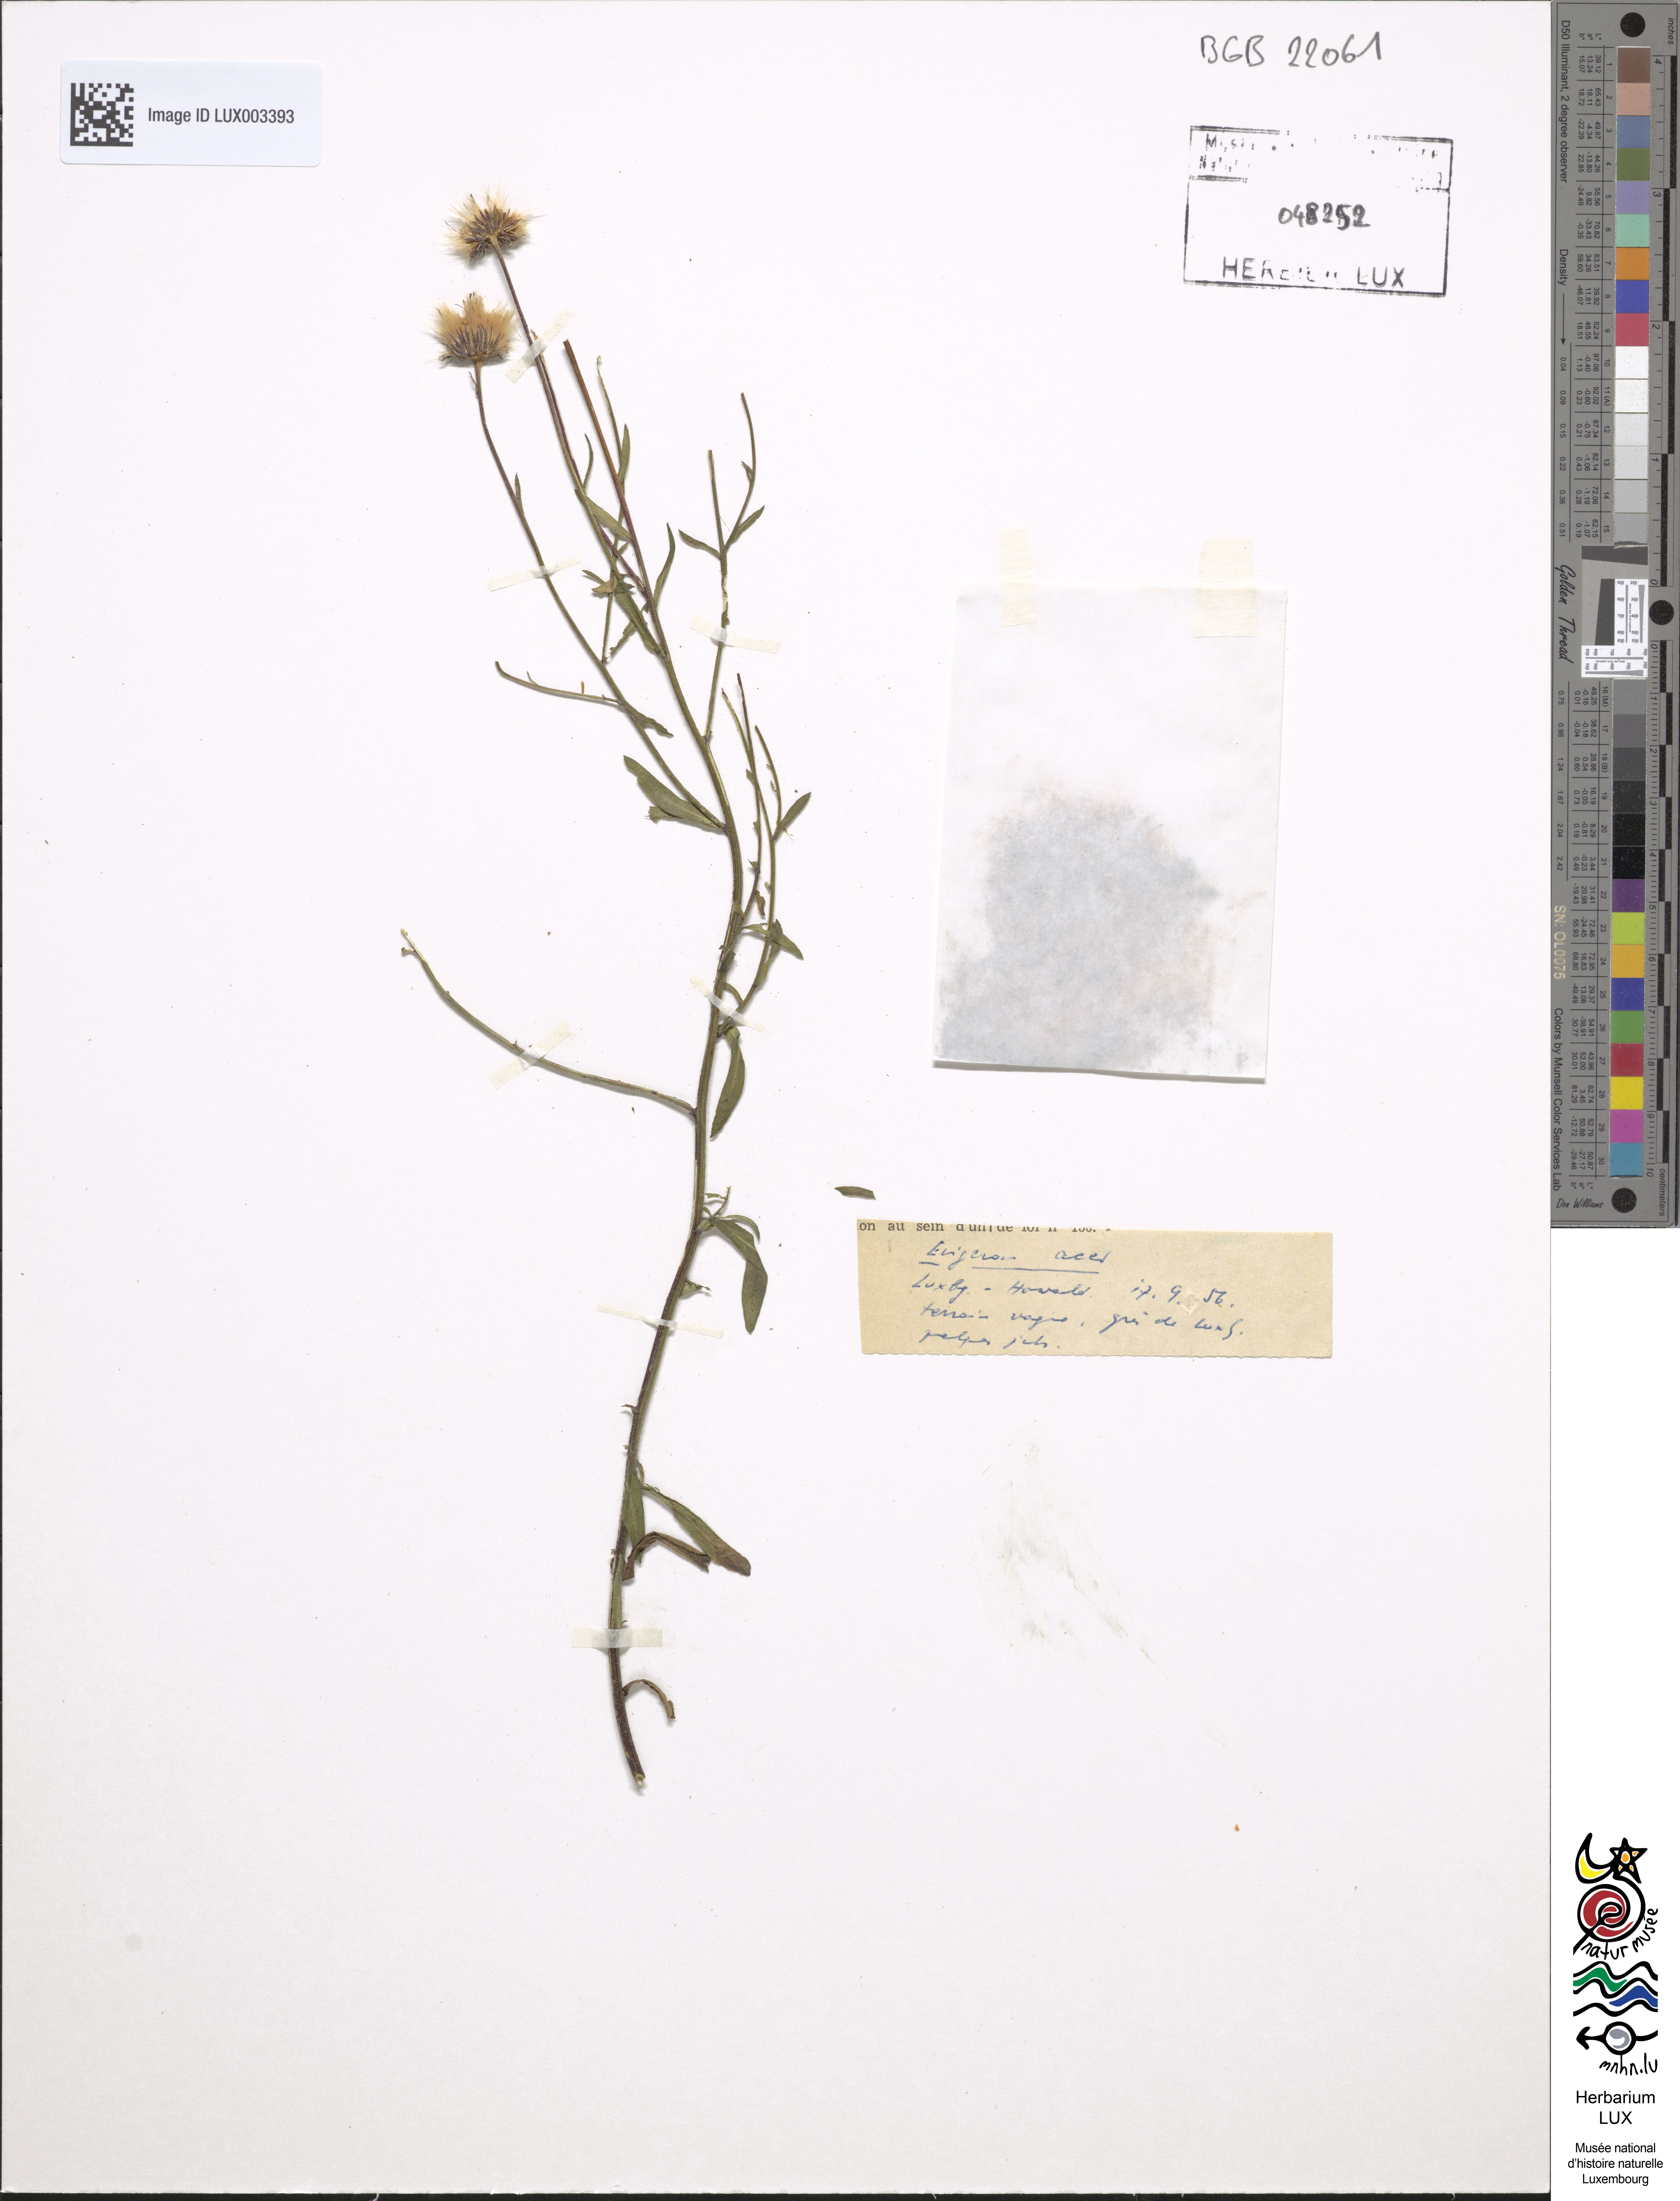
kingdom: Plantae
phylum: Tracheophyta
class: Magnoliopsida
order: Asterales
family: Asteraceae
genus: Erigeron
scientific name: Erigeron acer
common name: Blue fleabane
